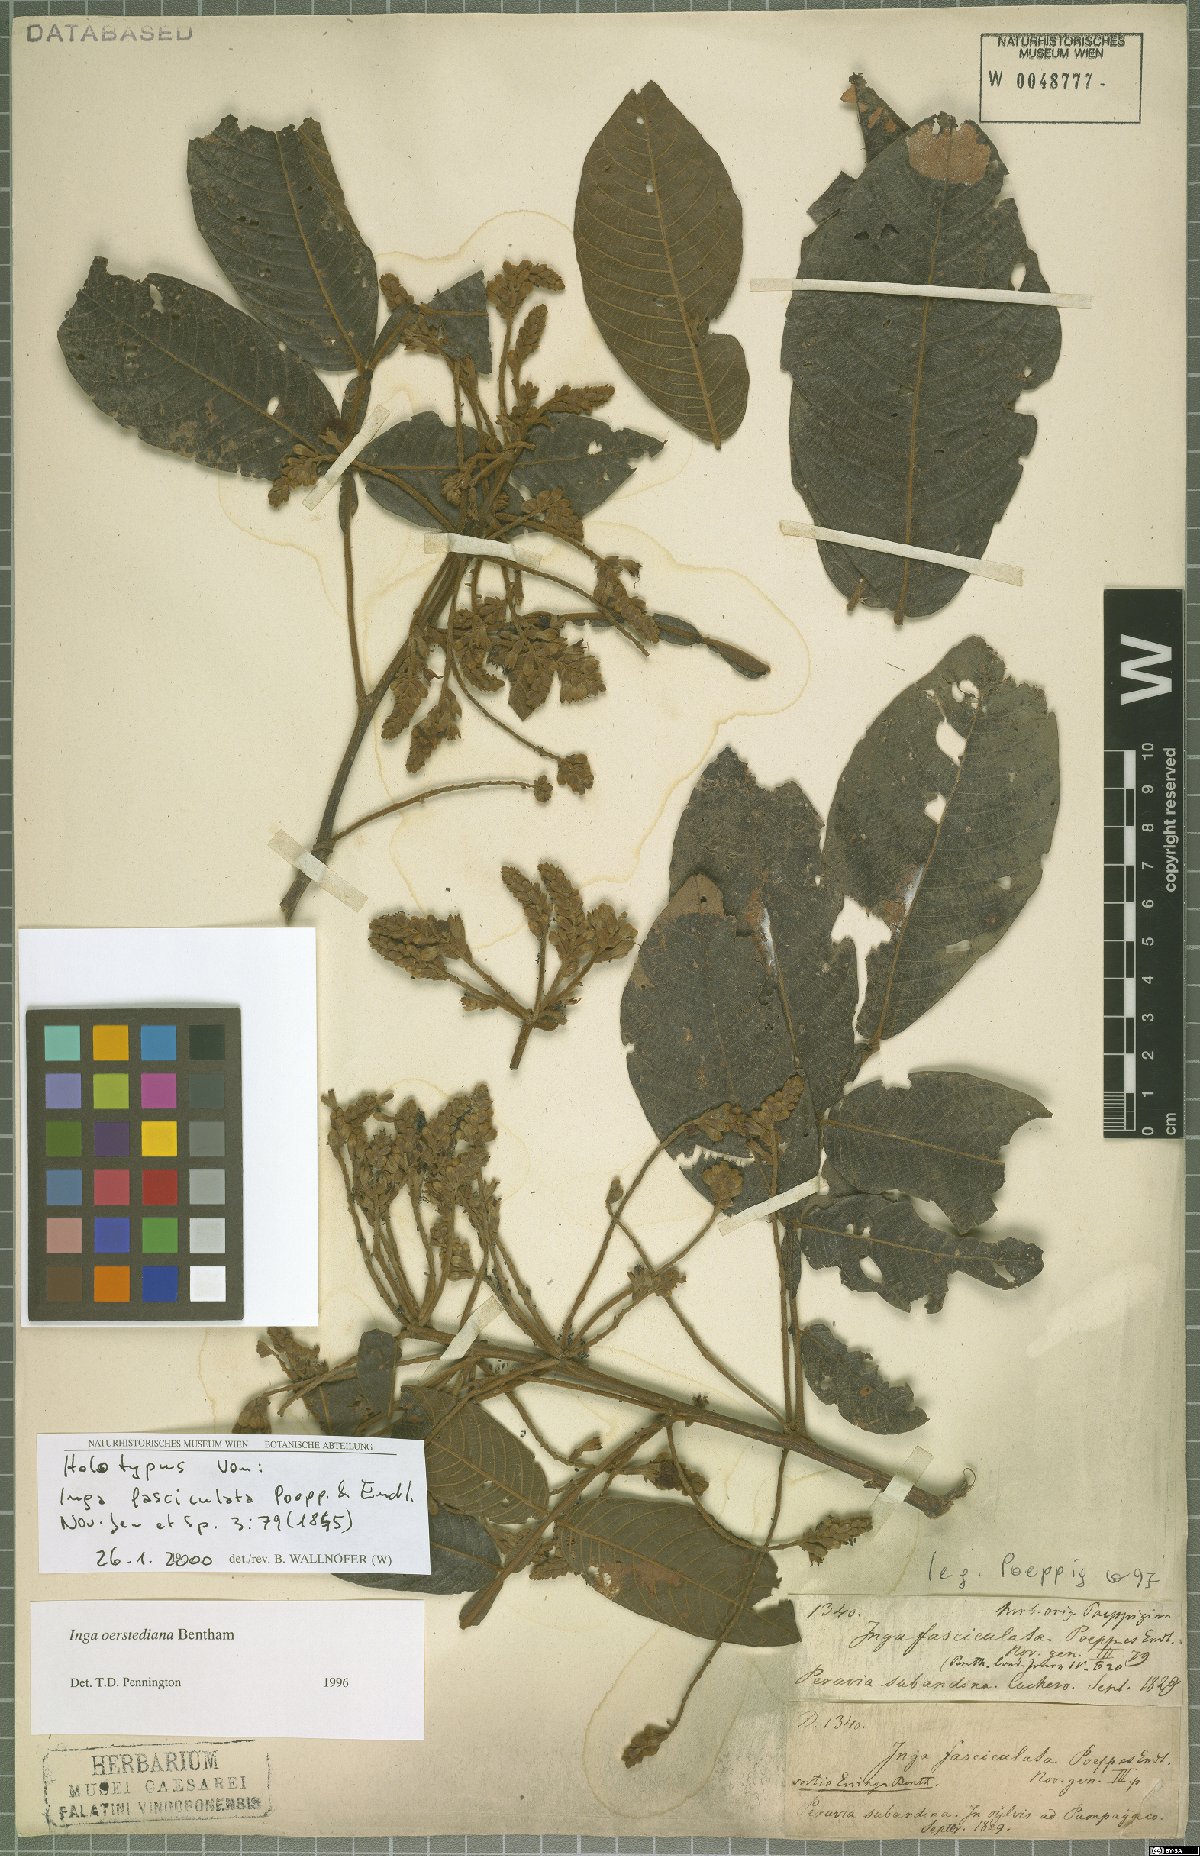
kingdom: Plantae
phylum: Tracheophyta
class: Magnoliopsida
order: Fabales
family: Fabaceae
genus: Inga
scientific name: Inga oerstediana
